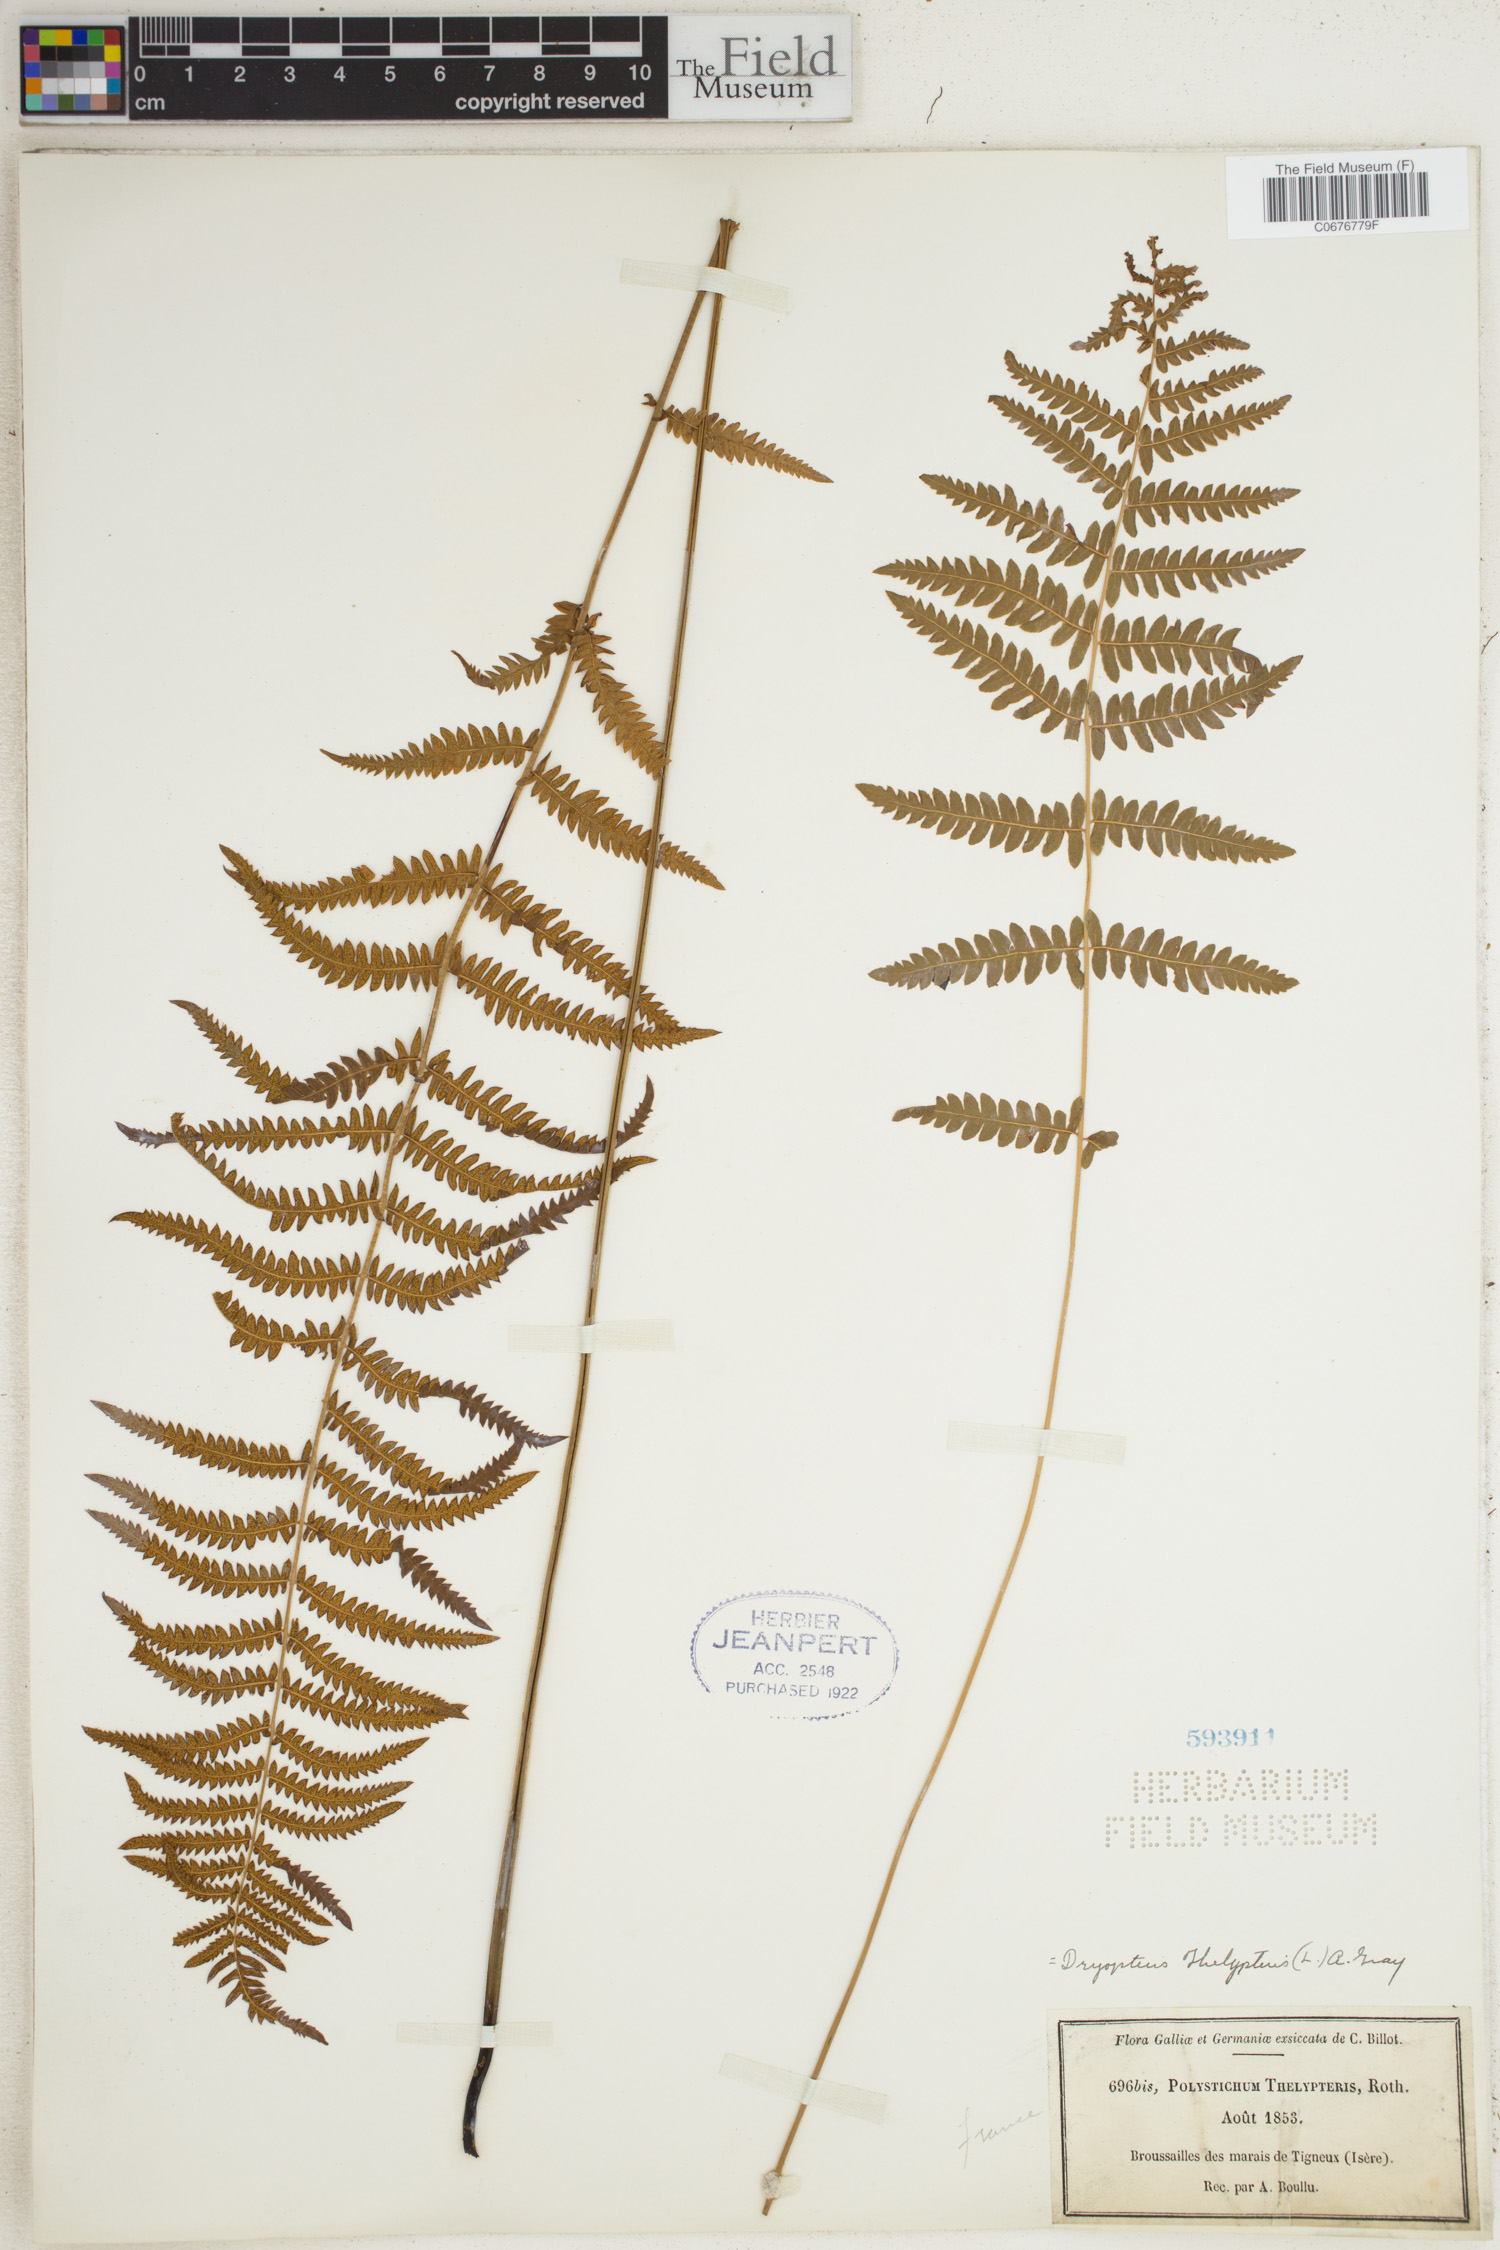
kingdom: Plantae
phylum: Tracheophyta
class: Polypodiopsida
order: Polypodiales
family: Thelypteridaceae
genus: Thelypteris
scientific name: Thelypteris palustris
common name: Marsh fern
